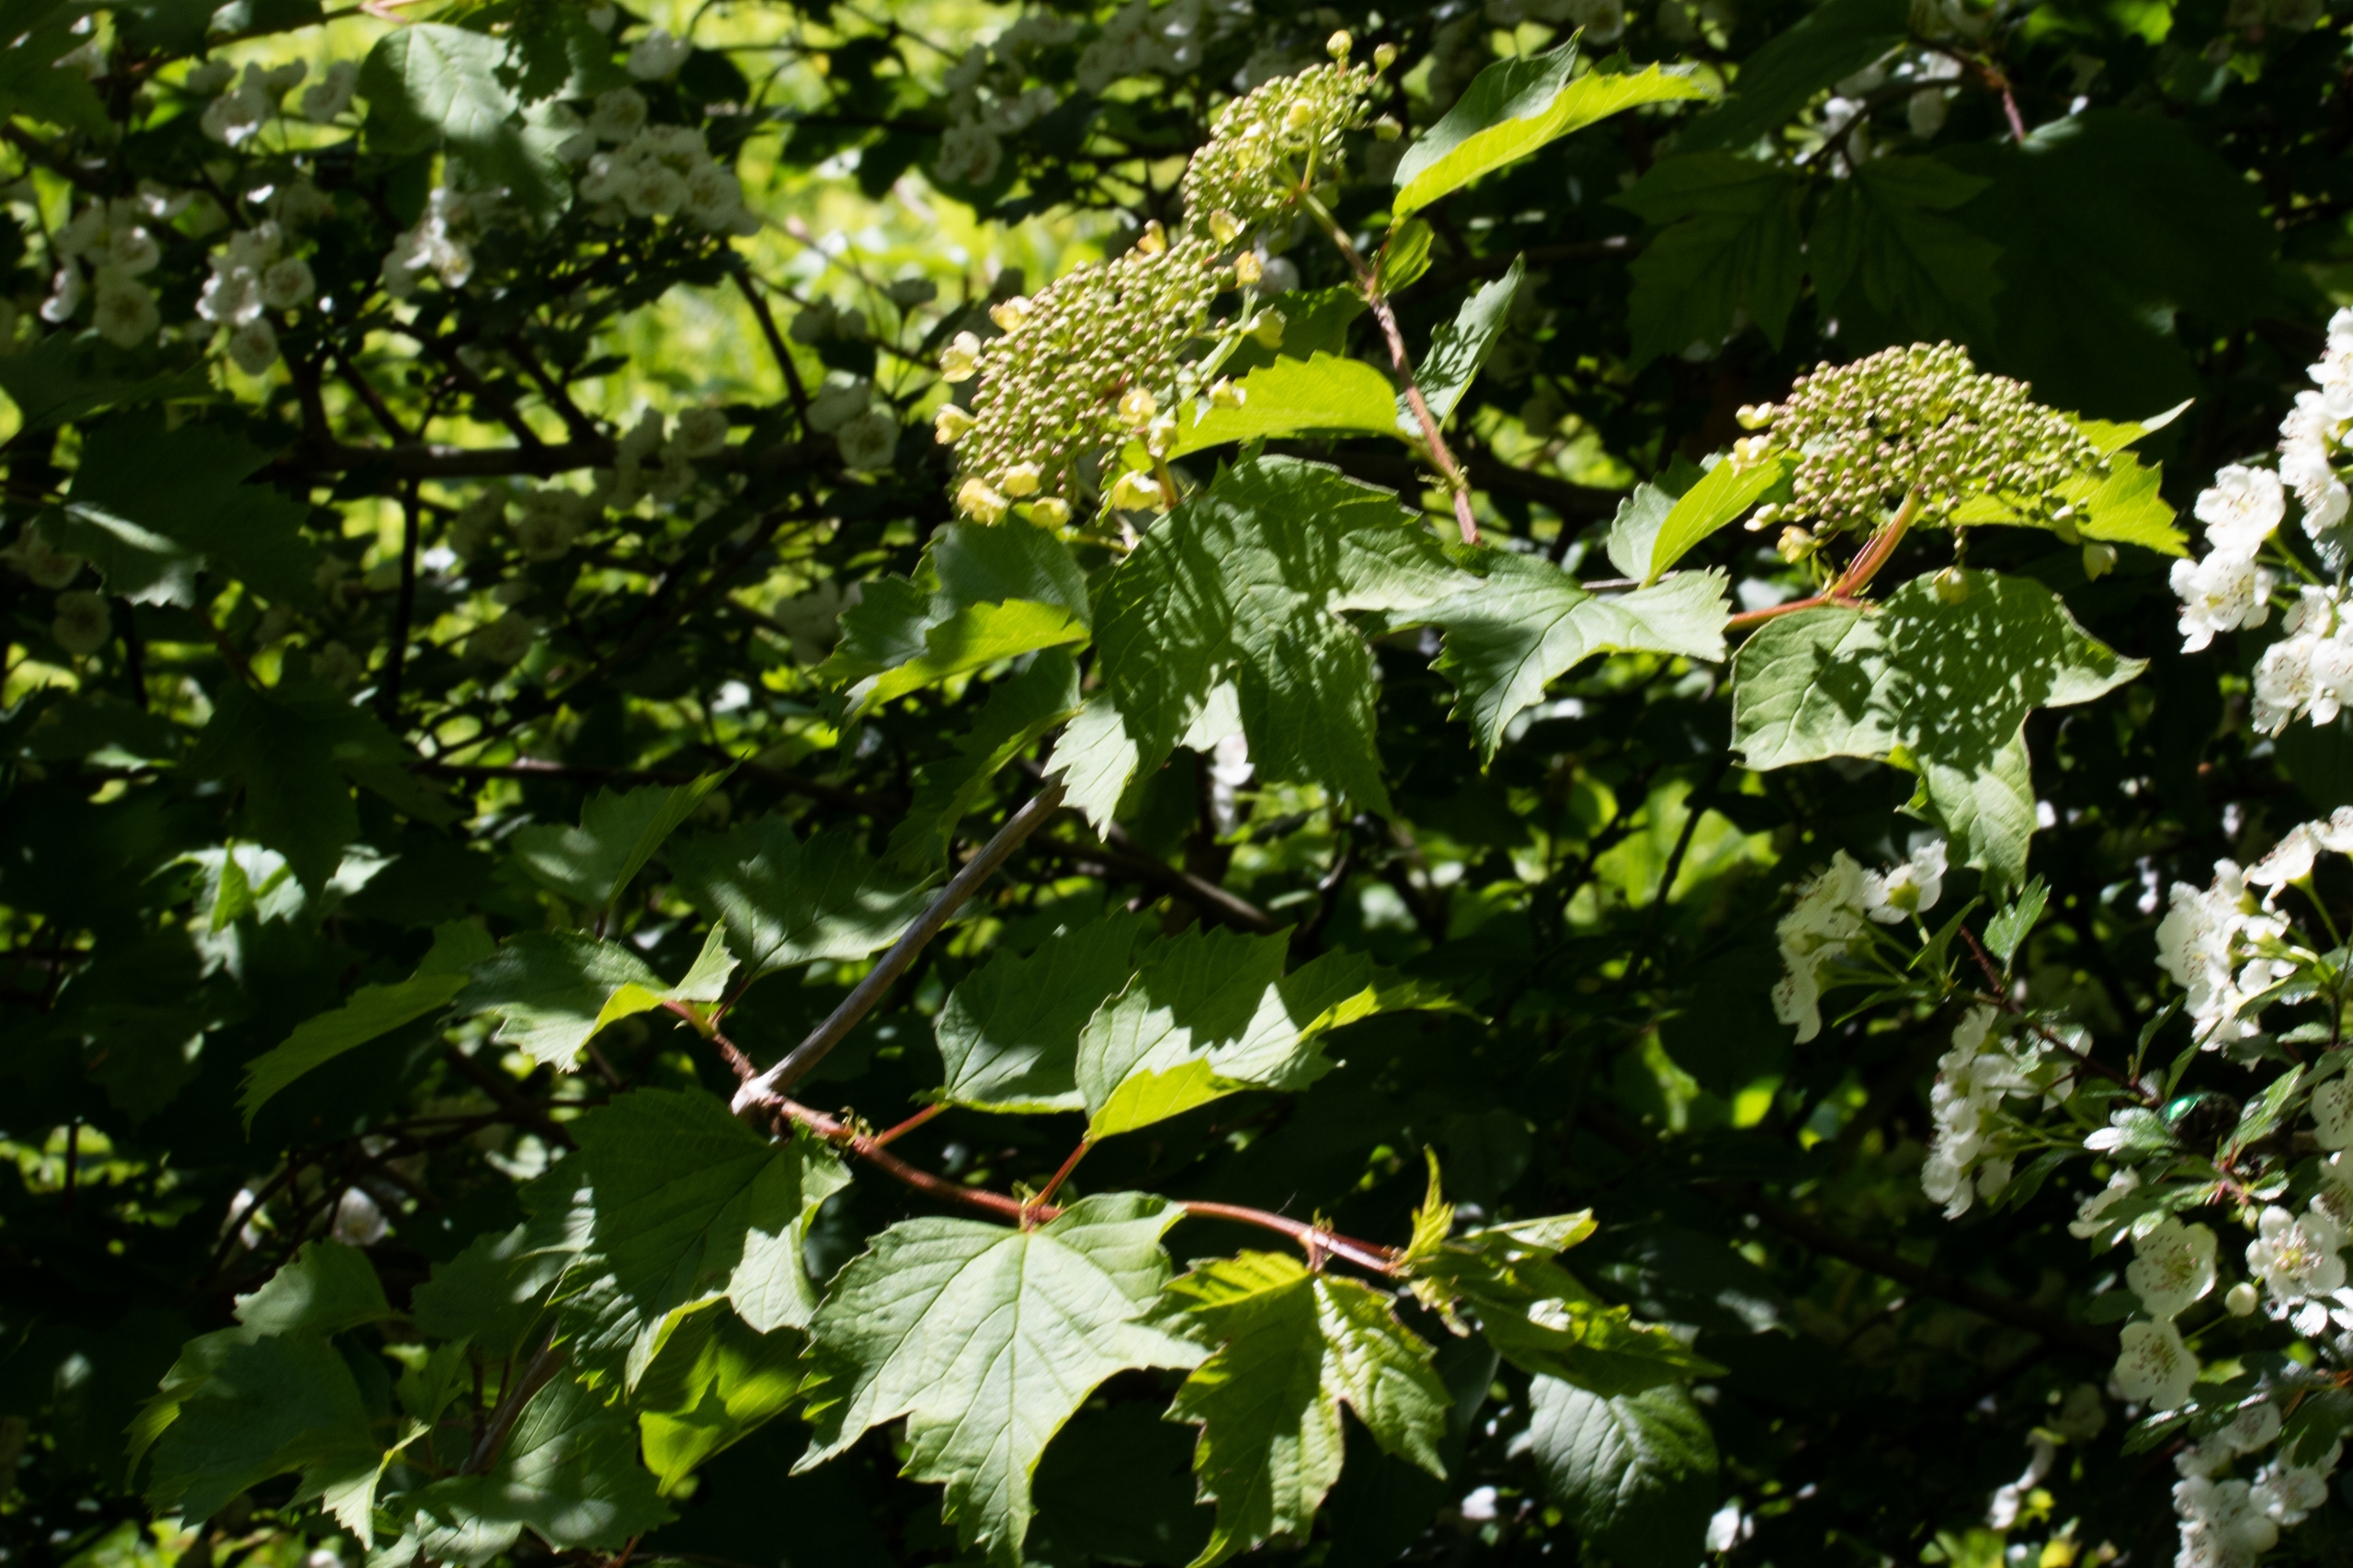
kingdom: Plantae
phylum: Tracheophyta
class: Magnoliopsida
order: Dipsacales
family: Viburnaceae
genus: Viburnum
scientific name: Viburnum opulus
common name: Kvalkved
